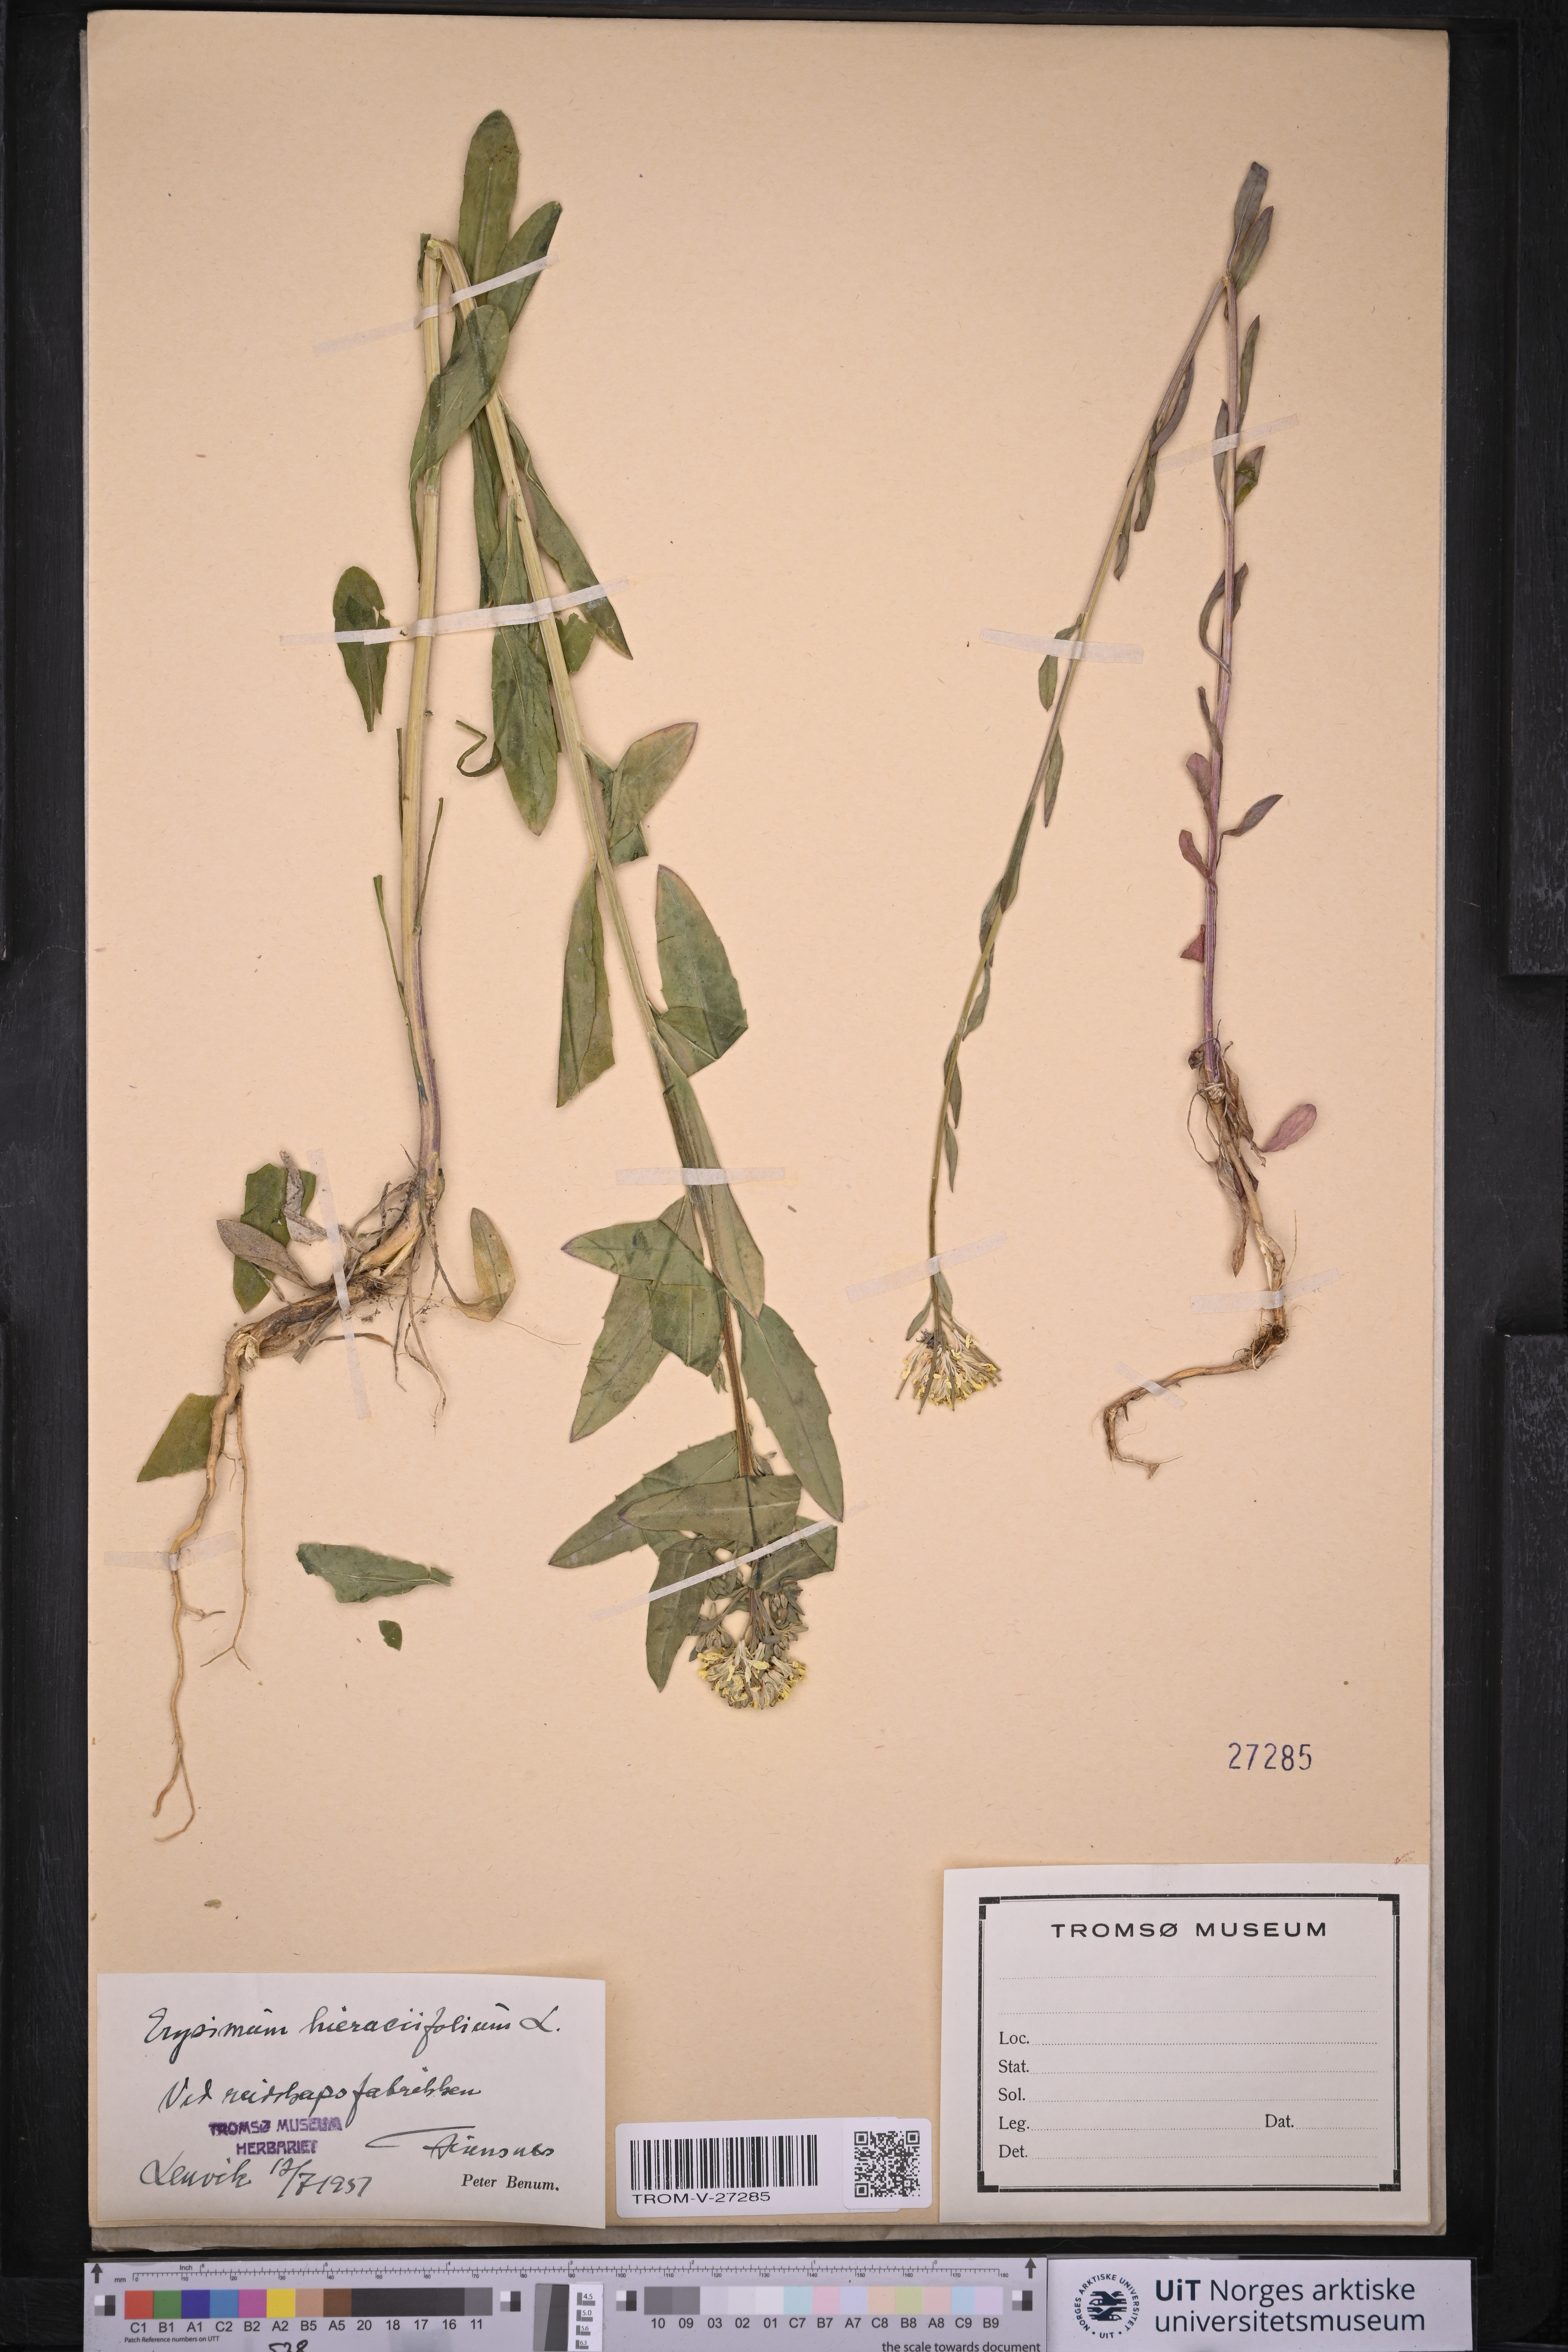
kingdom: Plantae
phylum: Tracheophyta
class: Magnoliopsida
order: Brassicales
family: Brassicaceae
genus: Erysimum
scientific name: Erysimum virgatum
